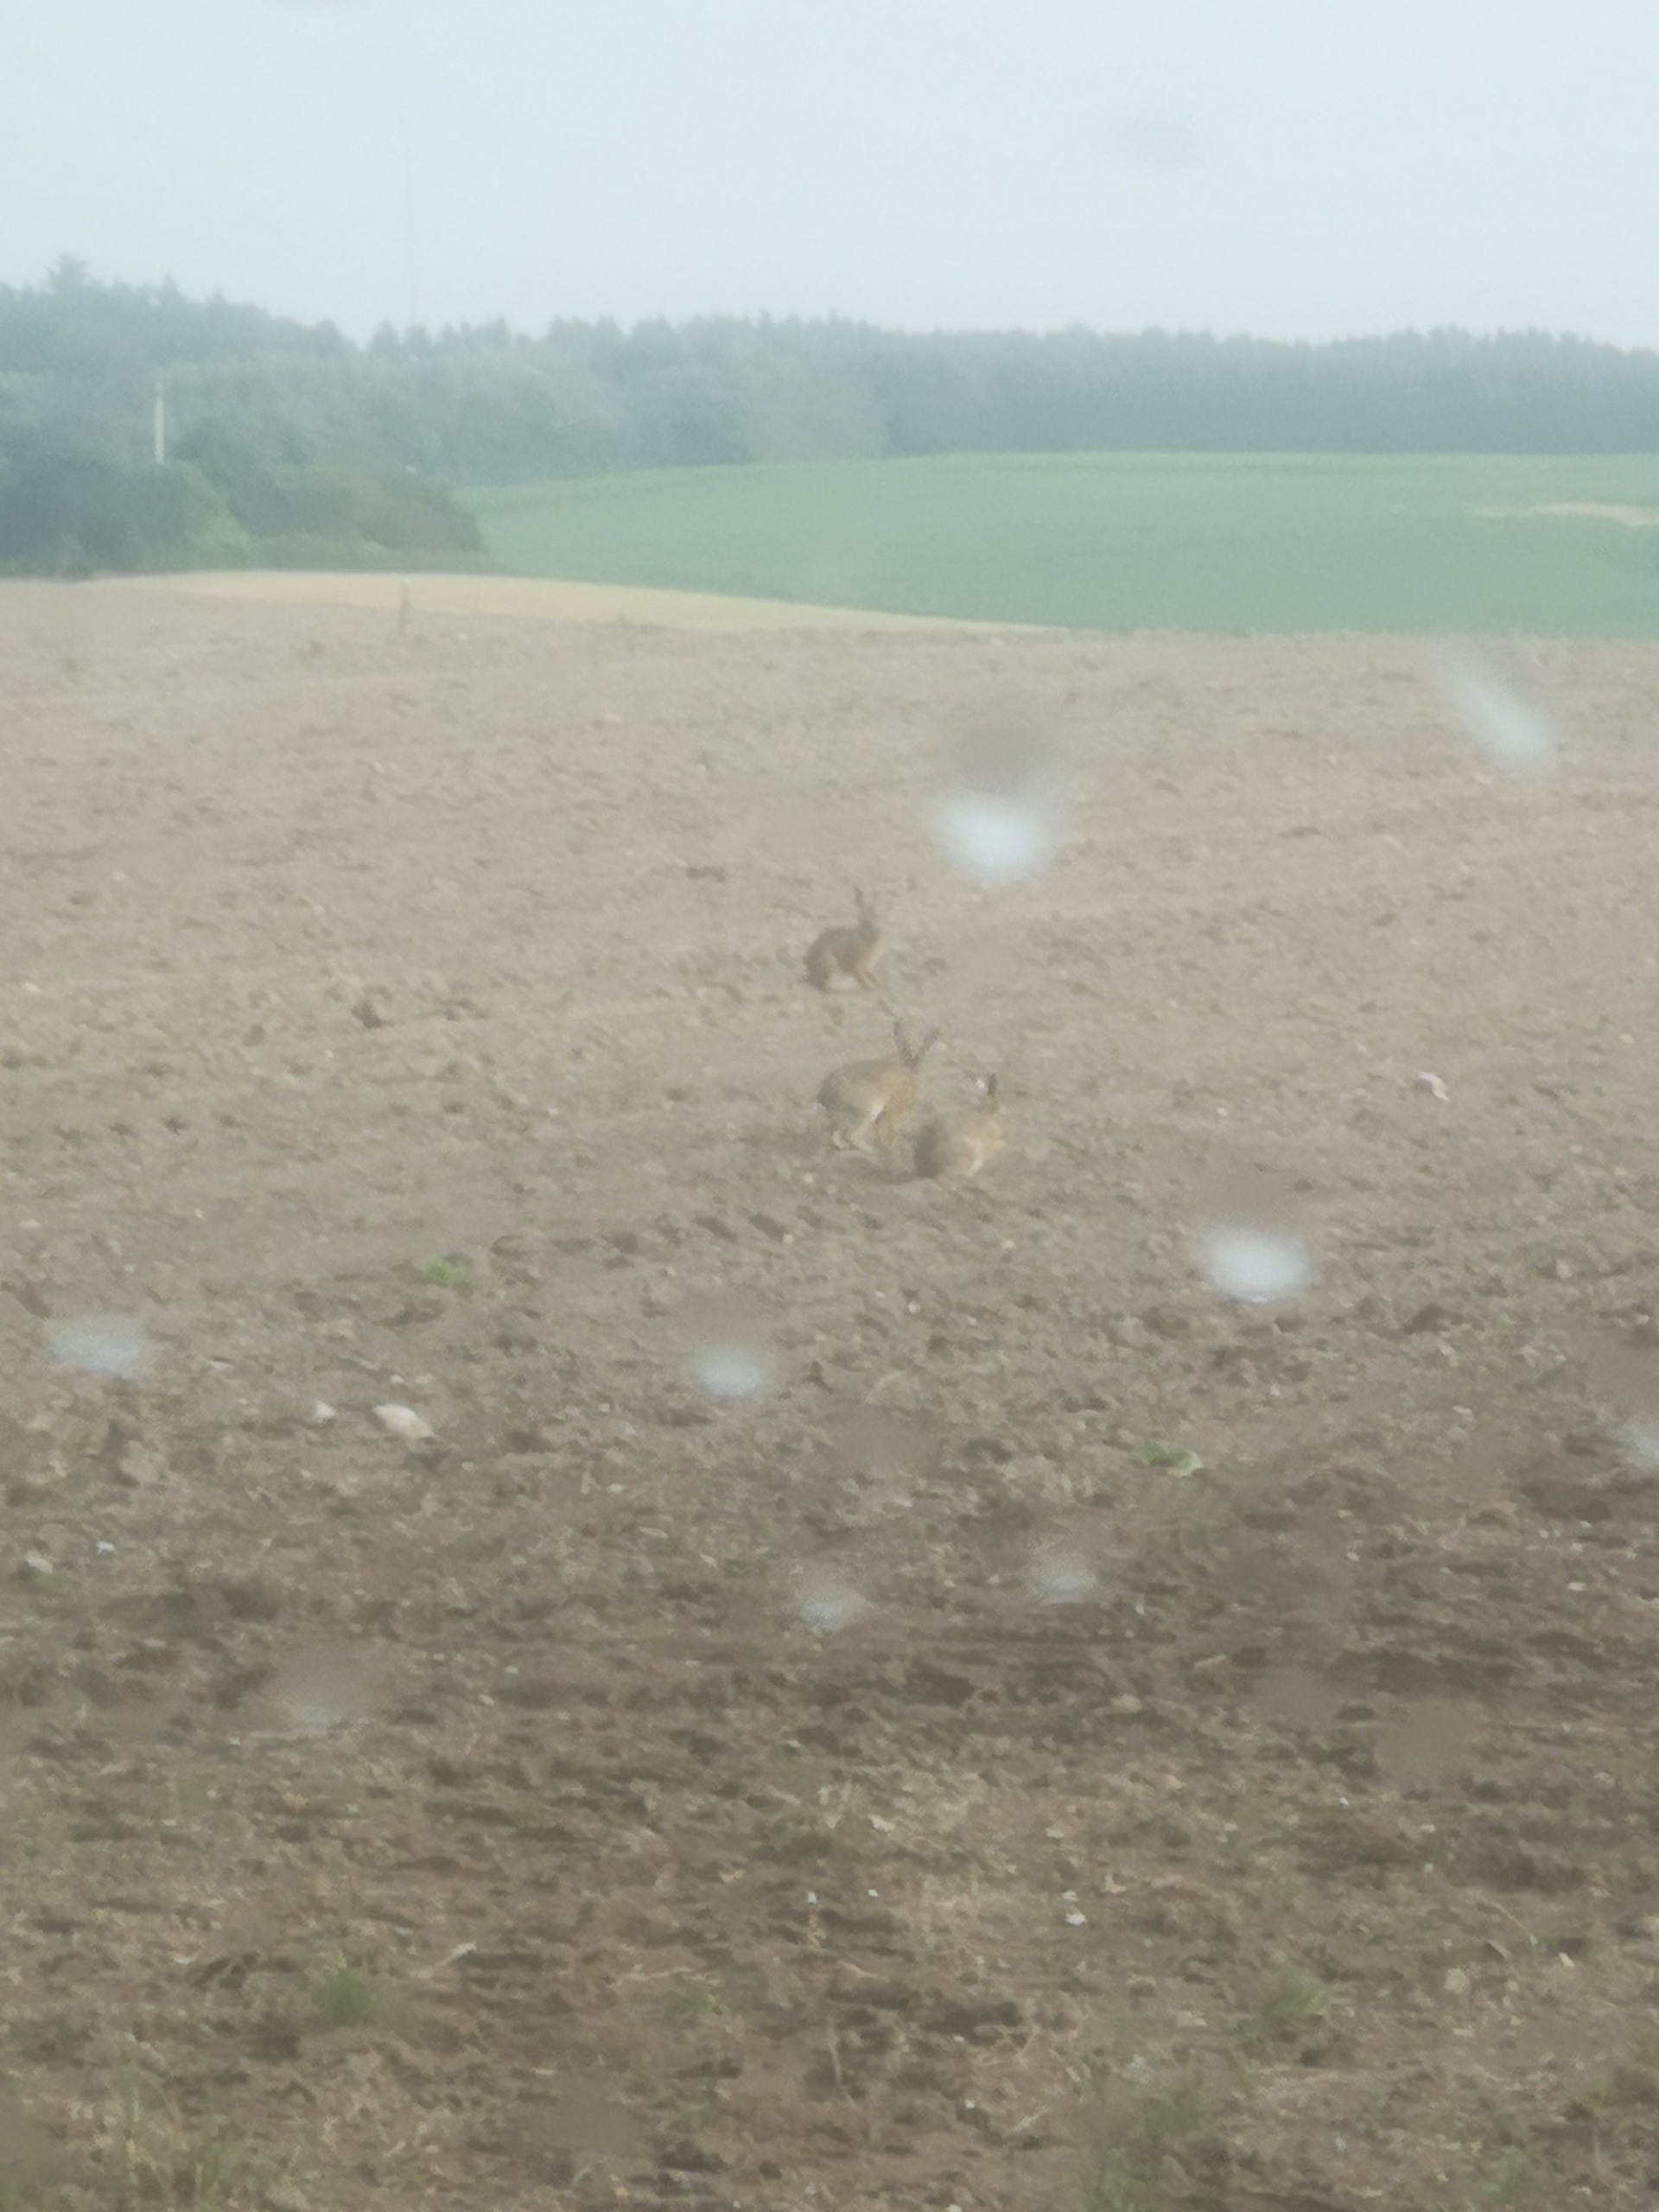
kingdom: Animalia
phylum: Chordata
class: Mammalia
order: Lagomorpha
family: Leporidae
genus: Lepus
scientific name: Lepus europaeus
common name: Hare
